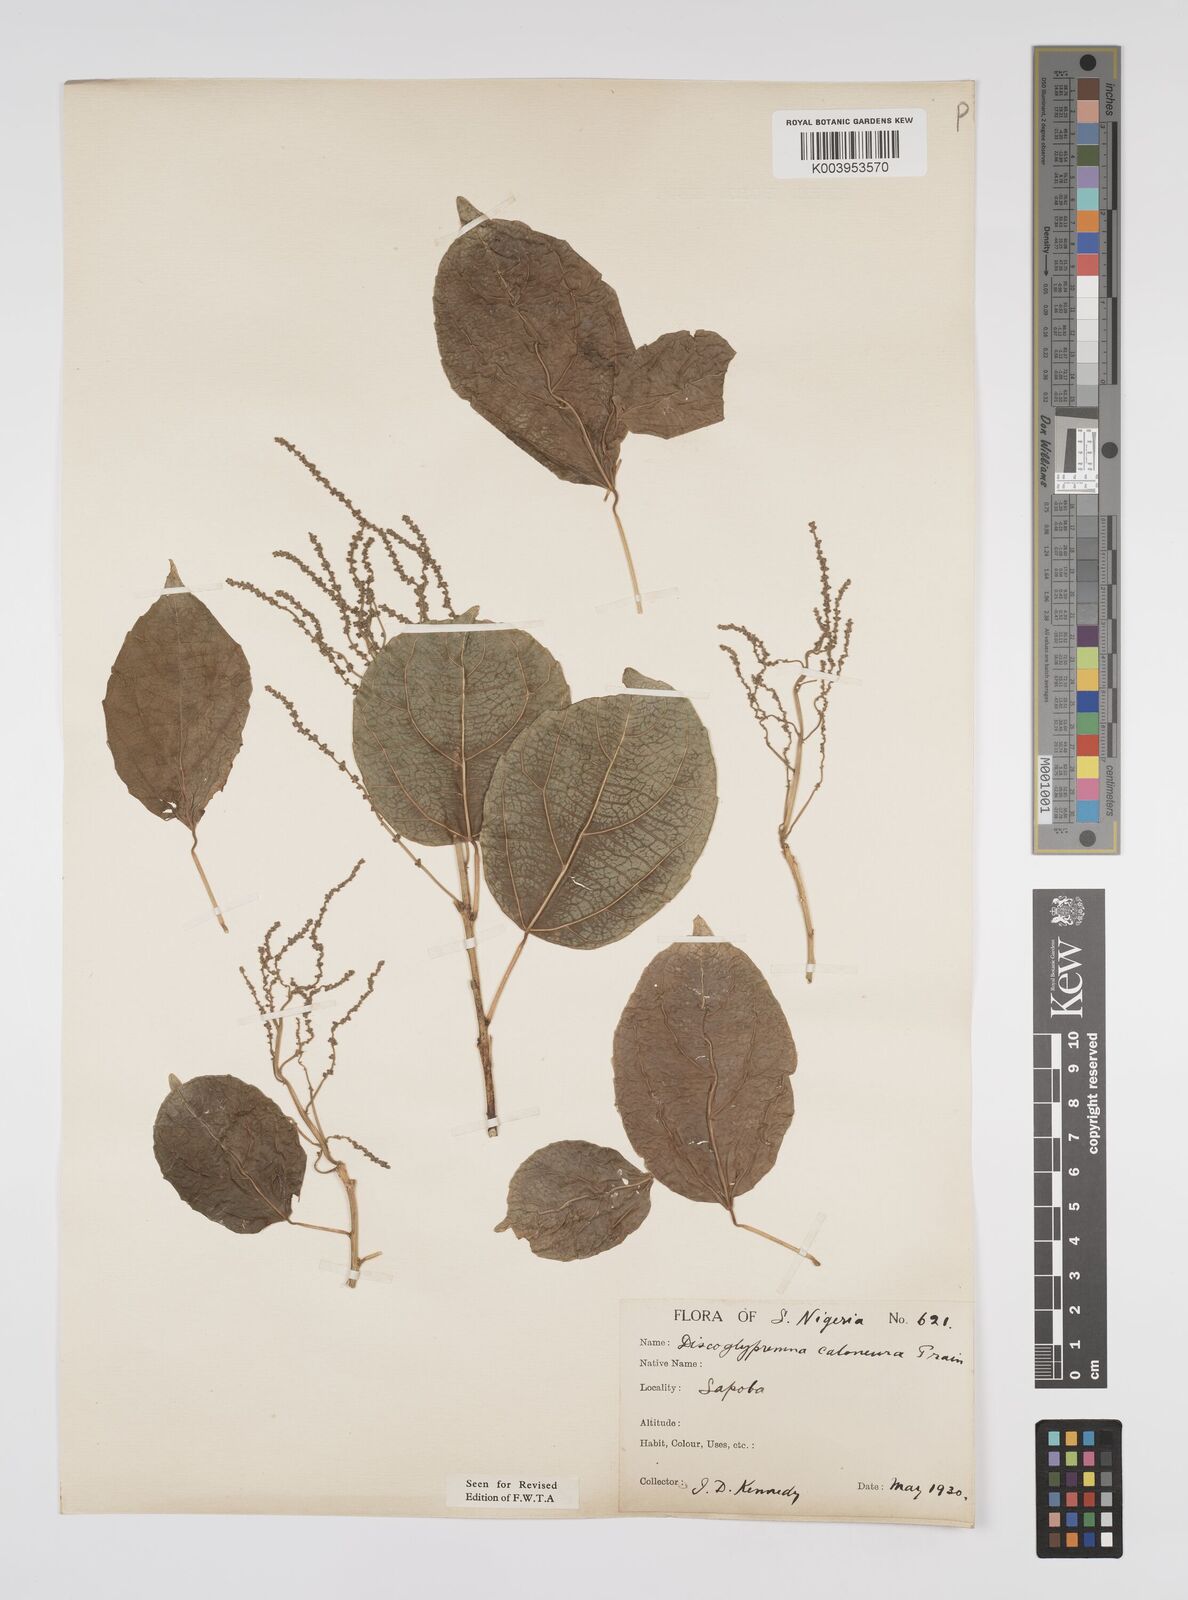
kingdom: Plantae
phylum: Tracheophyta
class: Magnoliopsida
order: Malpighiales
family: Euphorbiaceae
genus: Discoglypremna
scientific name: Discoglypremna caloneura
